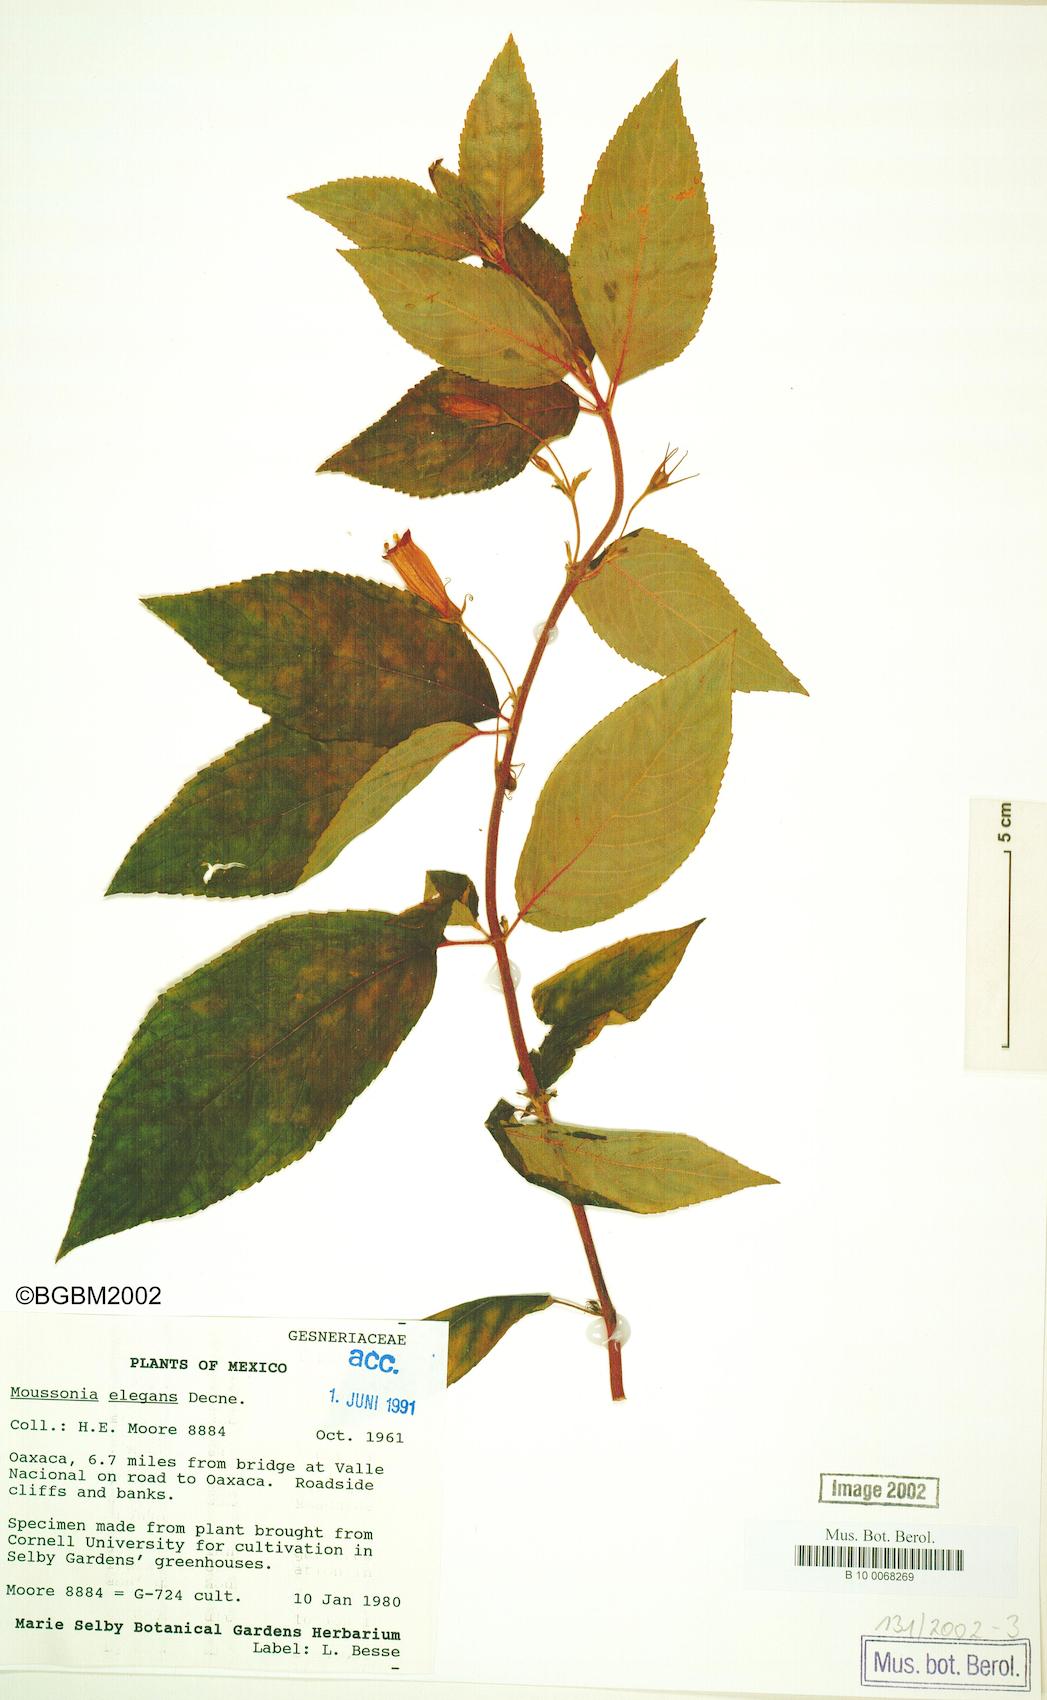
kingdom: Plantae
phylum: Tracheophyta
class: Magnoliopsida
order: Lamiales
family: Gesneriaceae
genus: Moussonia
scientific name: Moussonia elegans
